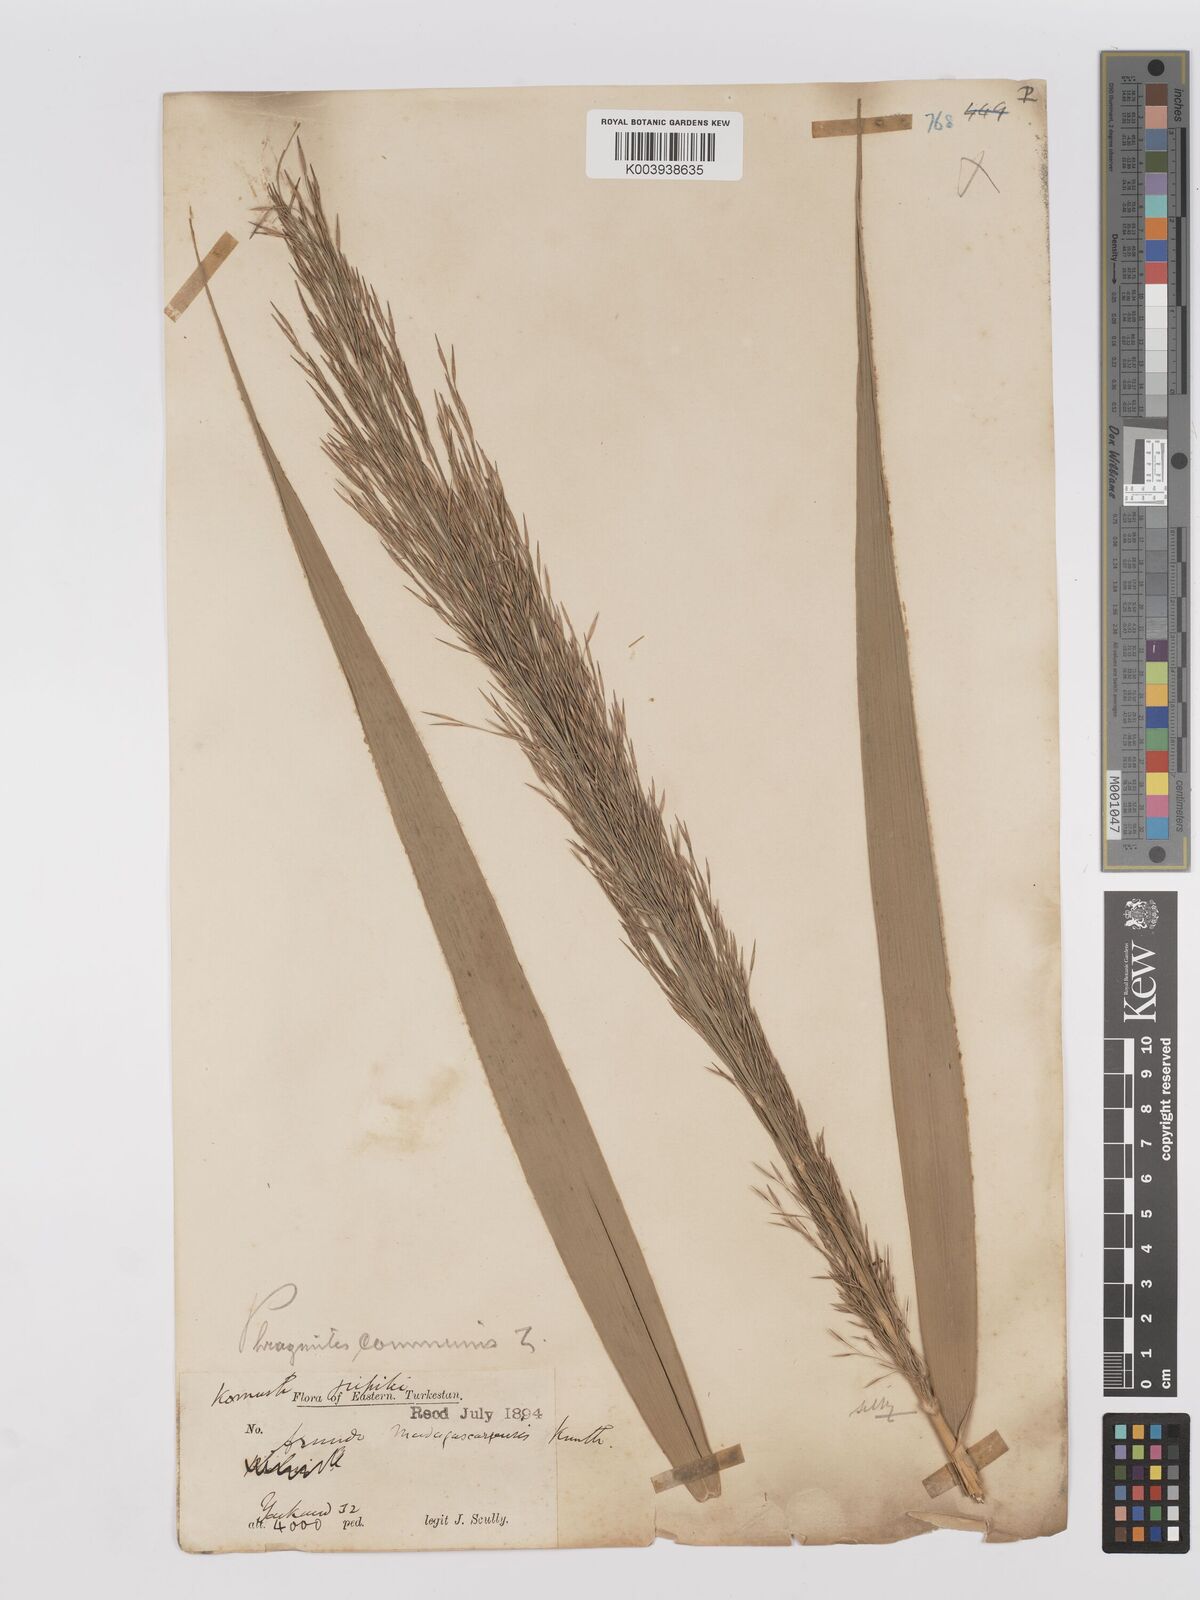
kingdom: Plantae
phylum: Tracheophyta
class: Liliopsida
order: Poales
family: Poaceae
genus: Phragmites
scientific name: Phragmites australis
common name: Common reed
